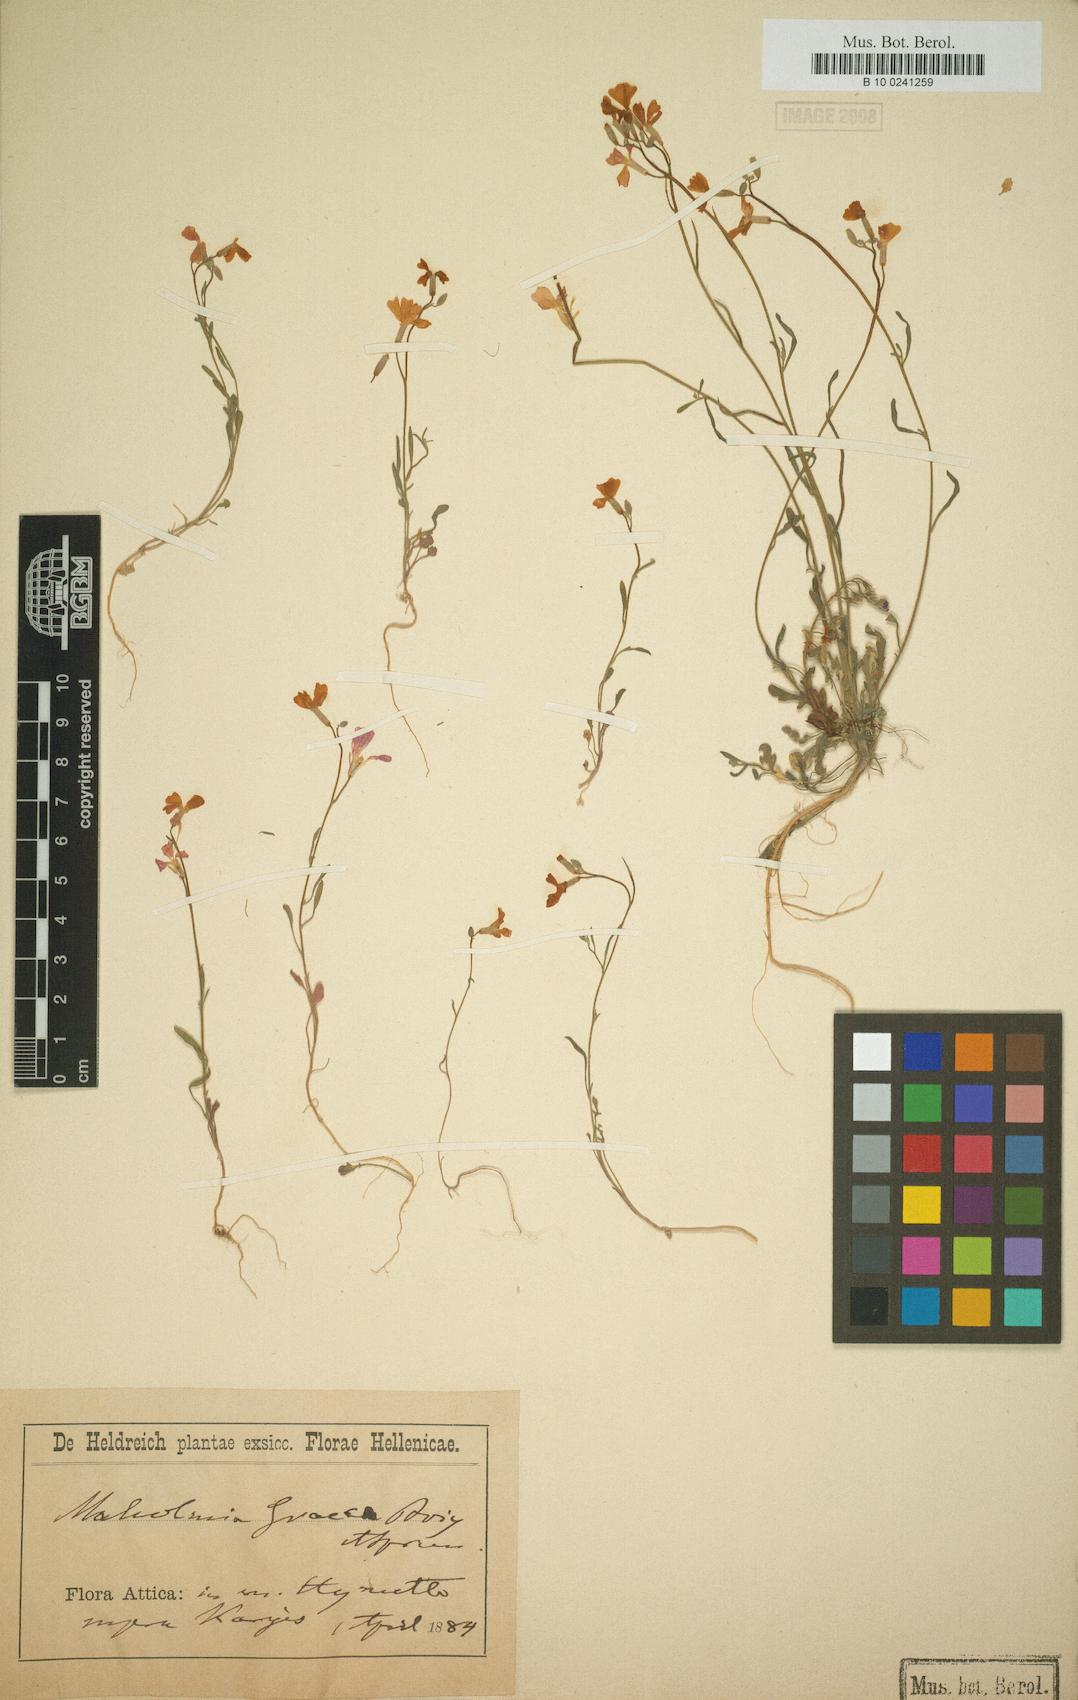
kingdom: Plantae
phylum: Tracheophyta
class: Magnoliopsida
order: Brassicales
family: Brassicaceae
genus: Malcolmia
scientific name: Malcolmia graeca
